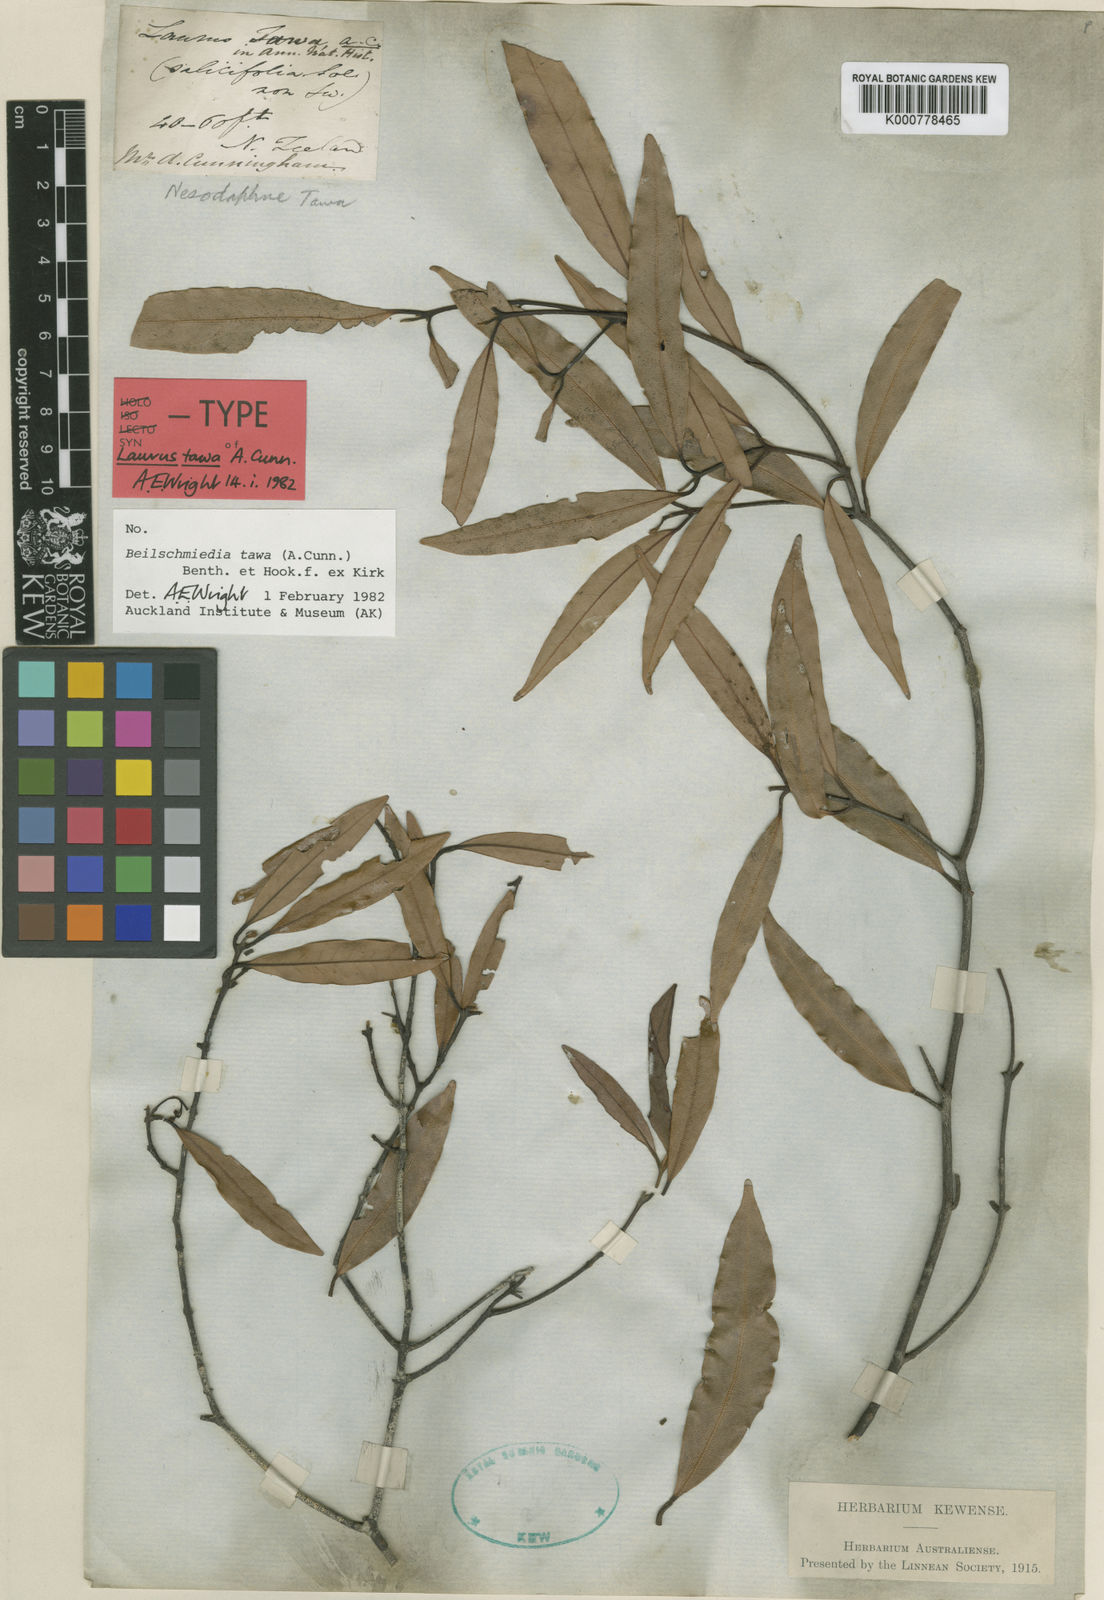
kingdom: Plantae
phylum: Tracheophyta
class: Magnoliopsida
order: Laurales
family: Lauraceae
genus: Beilschmiedia
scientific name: Beilschmiedia
